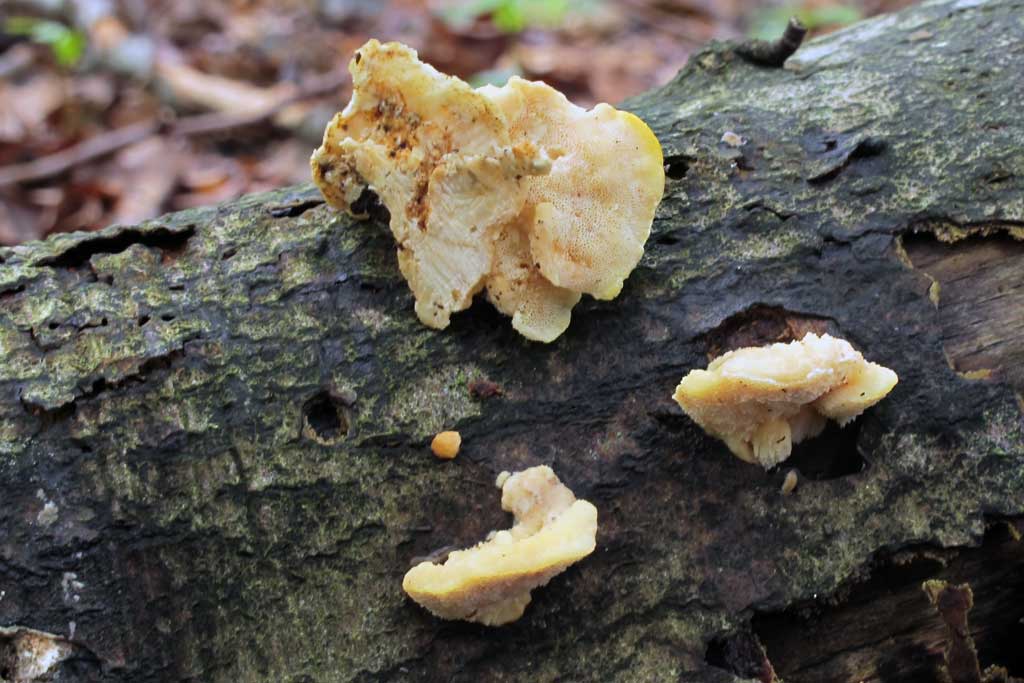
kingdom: Fungi
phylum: Basidiomycota
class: Agaricomycetes
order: Polyporales
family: Steccherinaceae
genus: Antrodiella
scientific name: Antrodiella serpula
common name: gulrandet elastikporesvamp
